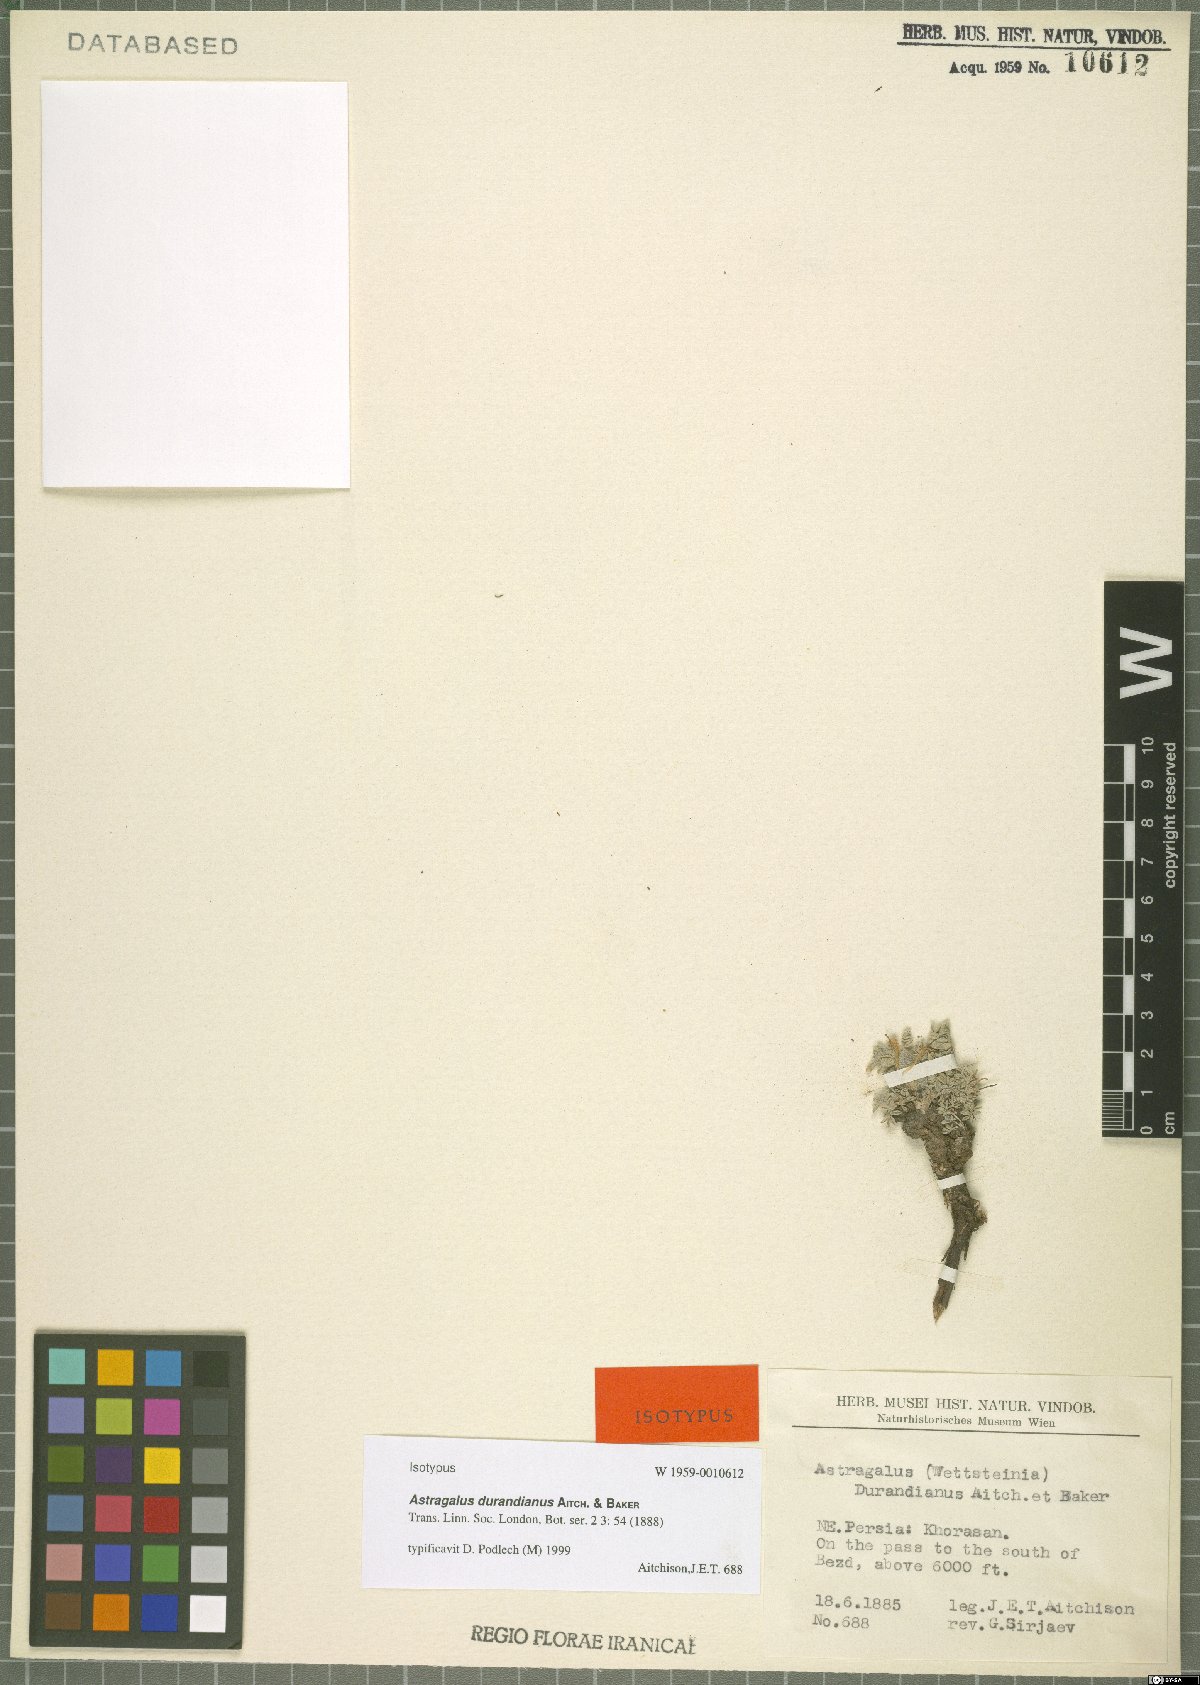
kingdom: Plantae
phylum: Tracheophyta
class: Magnoliopsida
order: Fabales
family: Fabaceae
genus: Astragalus
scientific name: Astragalus durandianus
